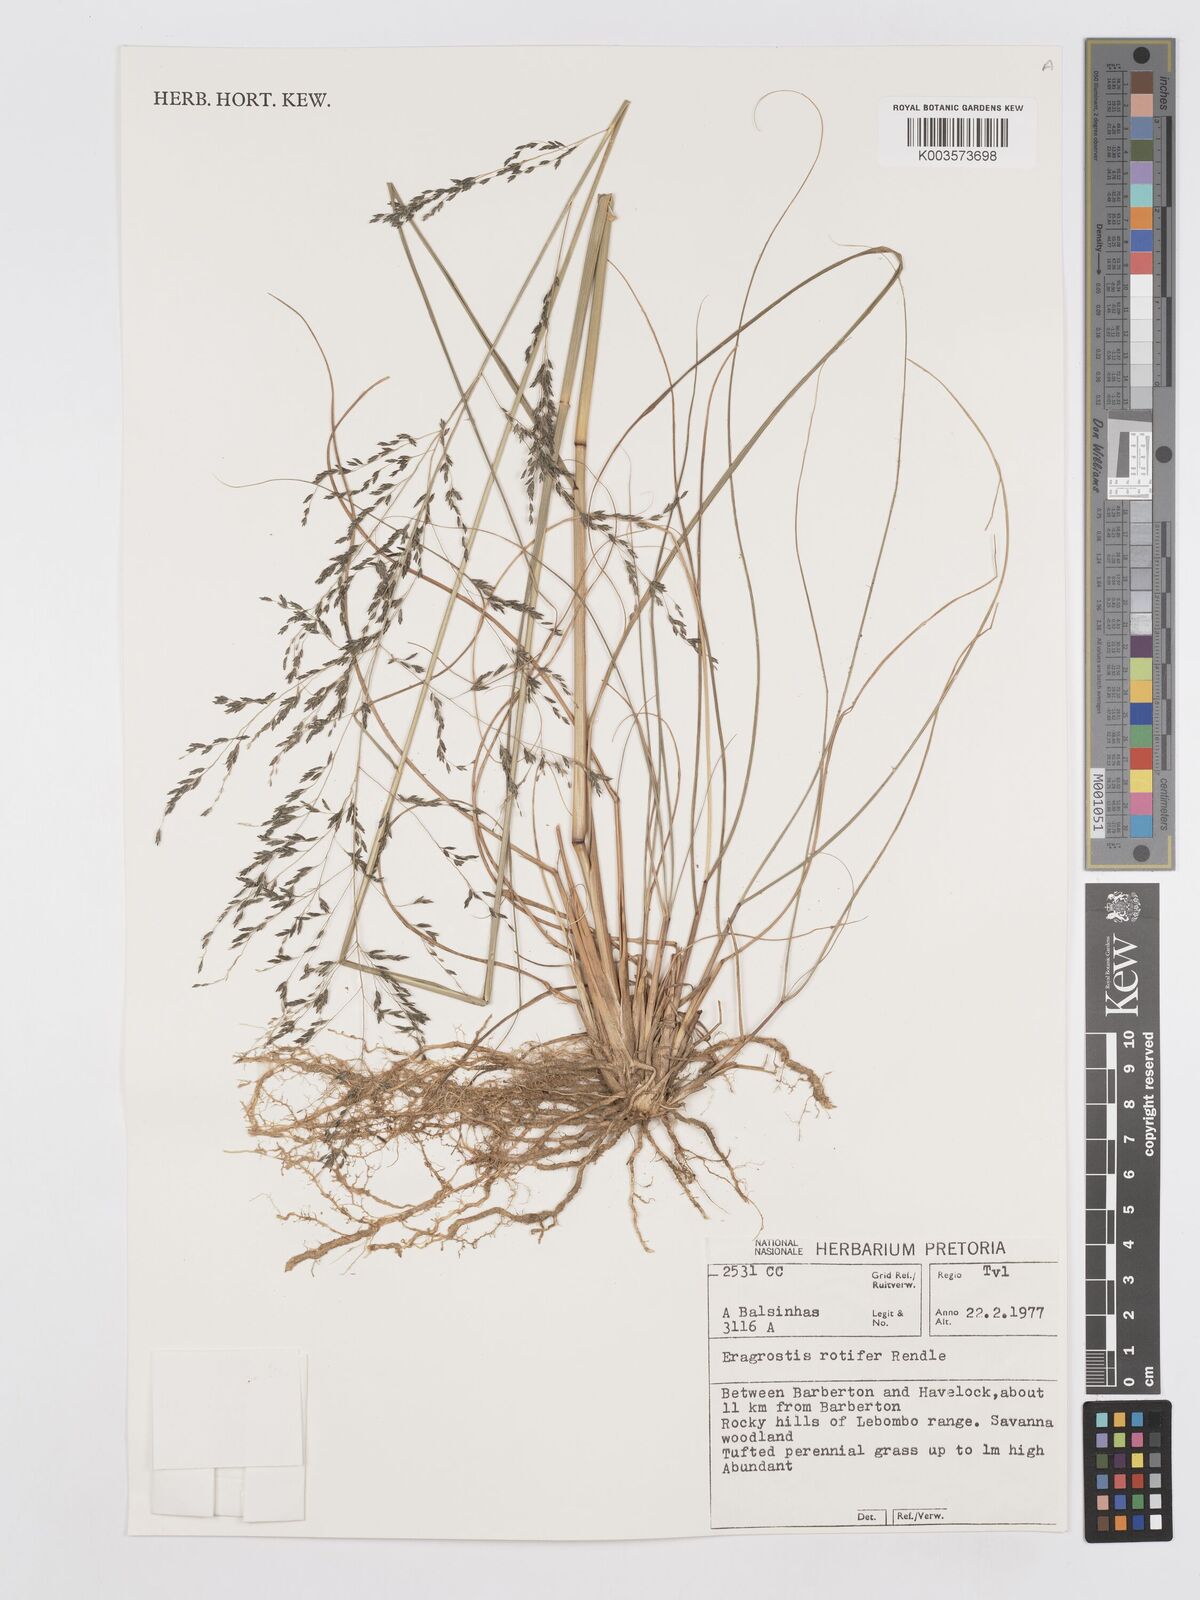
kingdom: Plantae
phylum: Tracheophyta
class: Liliopsida
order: Poales
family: Poaceae
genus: Eragrostis
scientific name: Eragrostis rotifer
